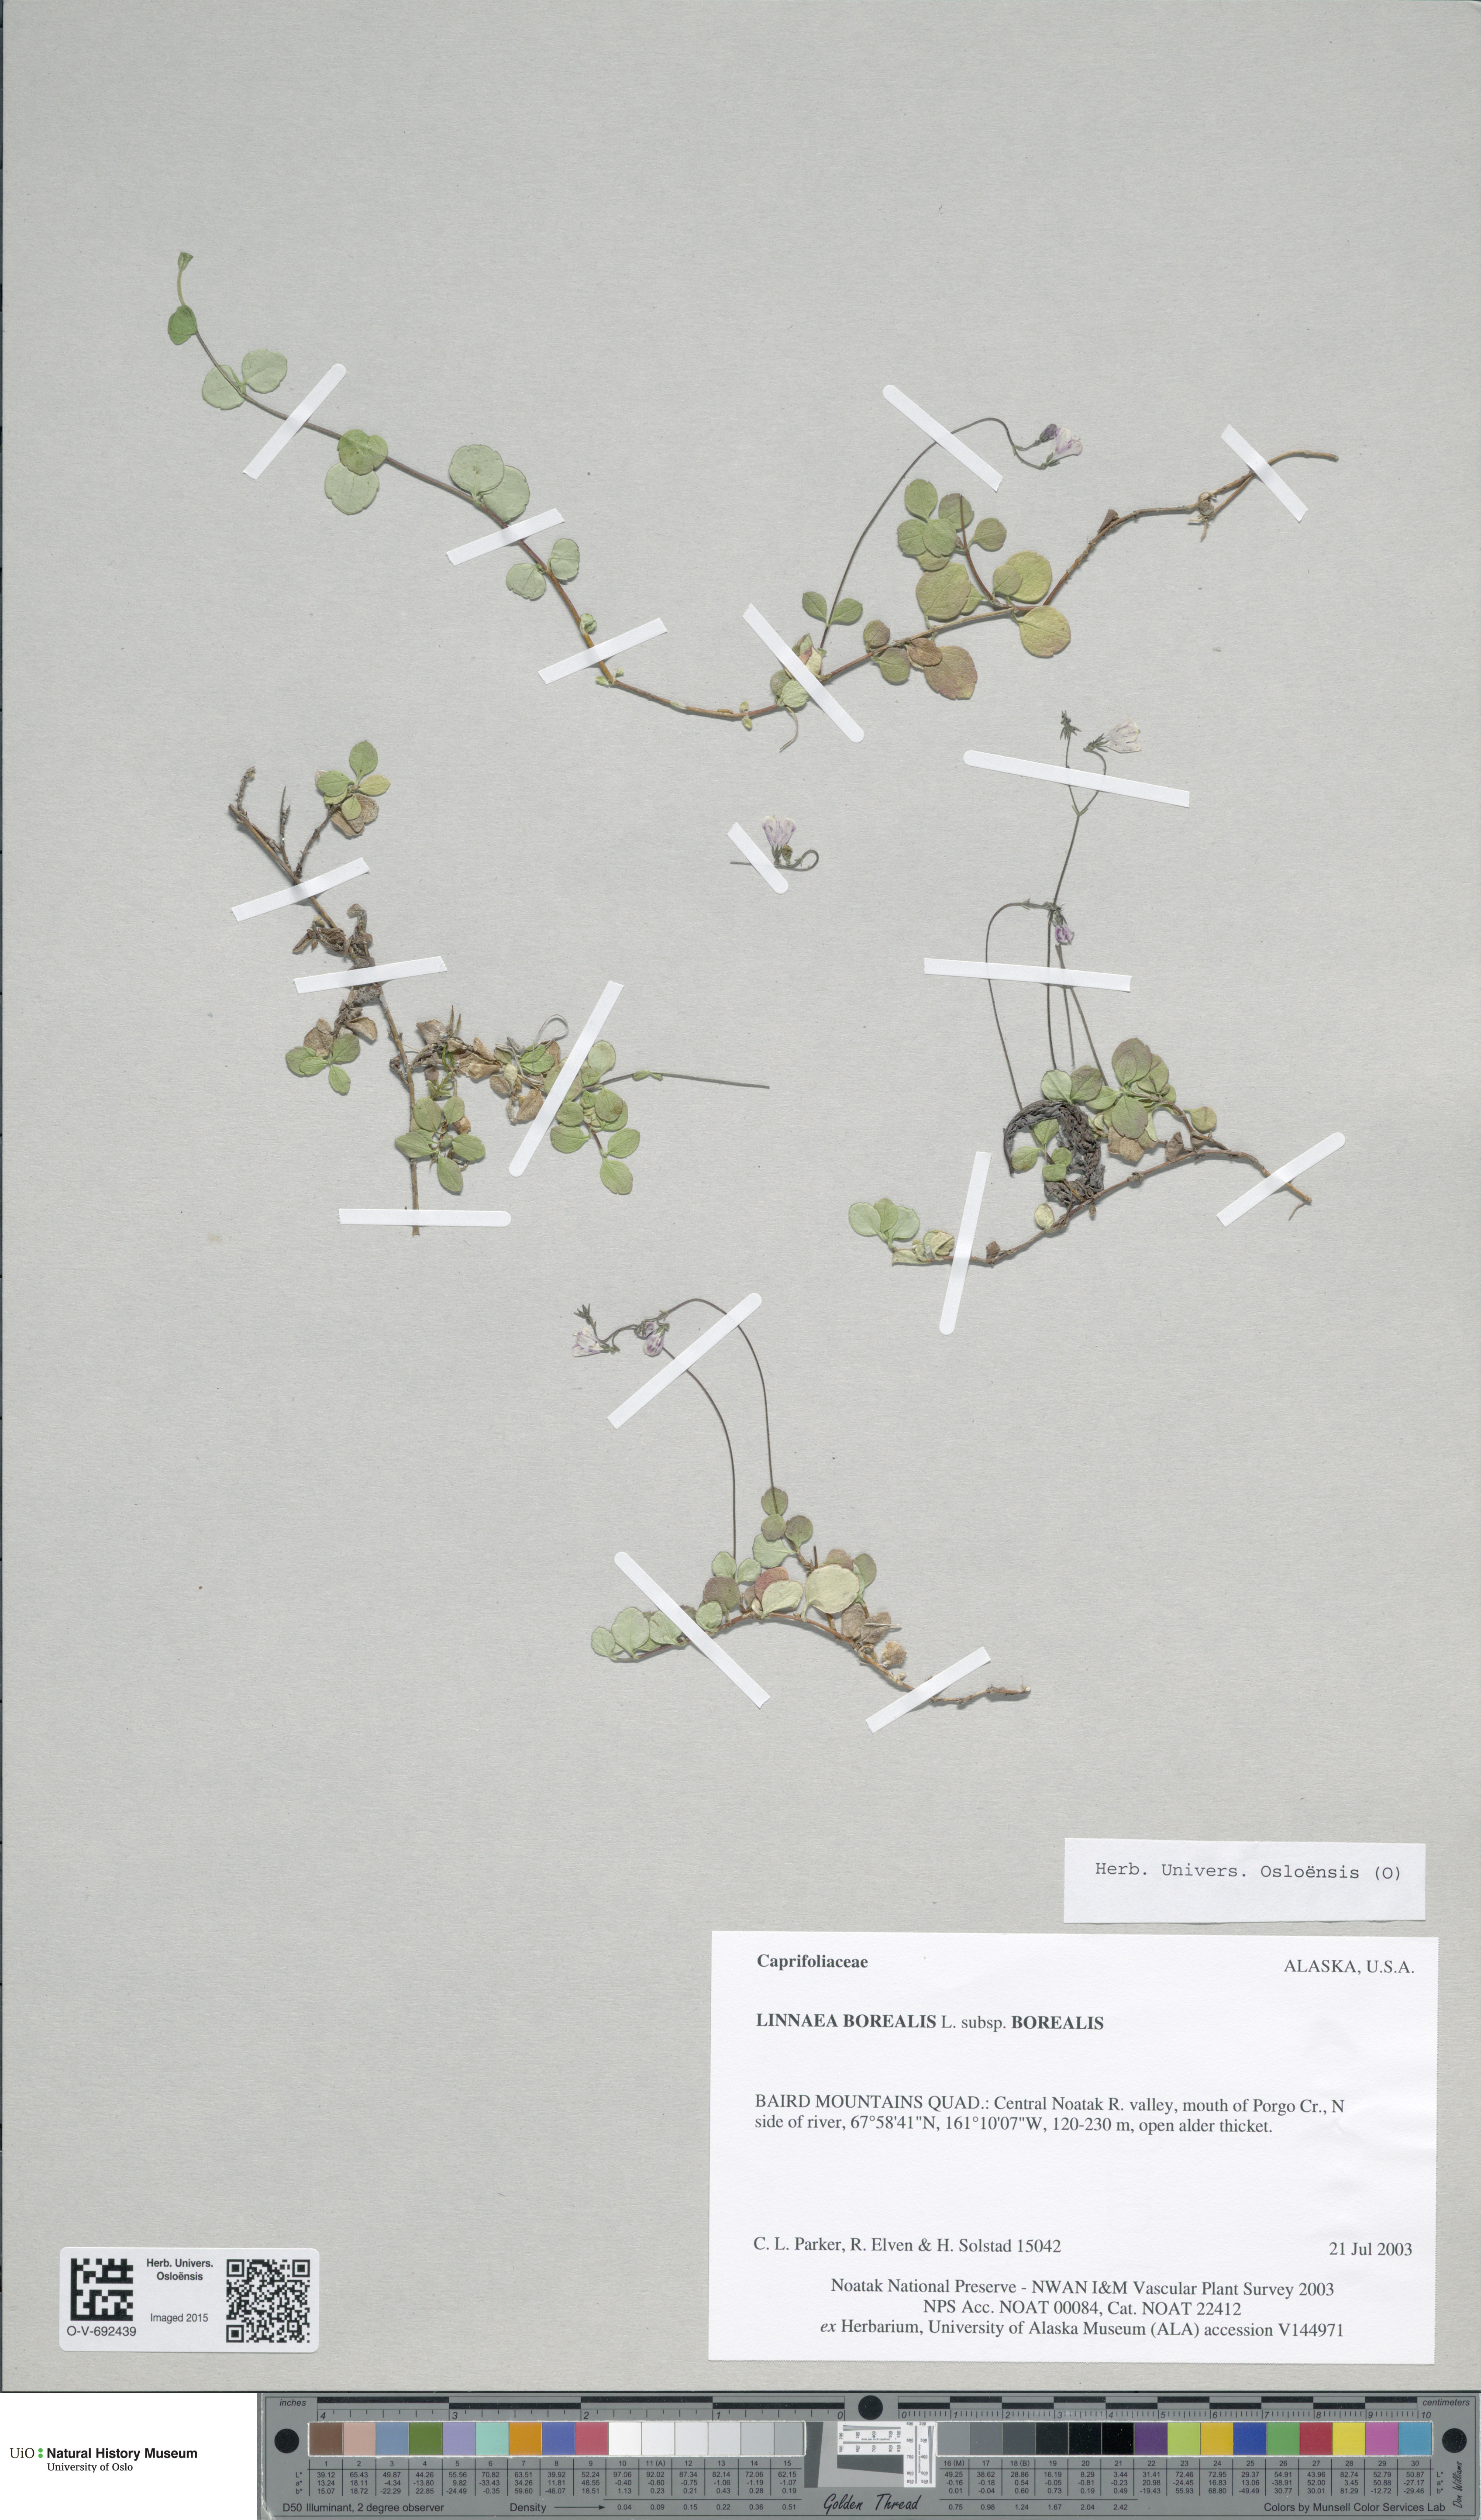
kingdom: Plantae
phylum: Tracheophyta
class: Magnoliopsida
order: Dipsacales
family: Caprifoliaceae
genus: Linnaea
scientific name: Linnaea borealis
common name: Twinflower
